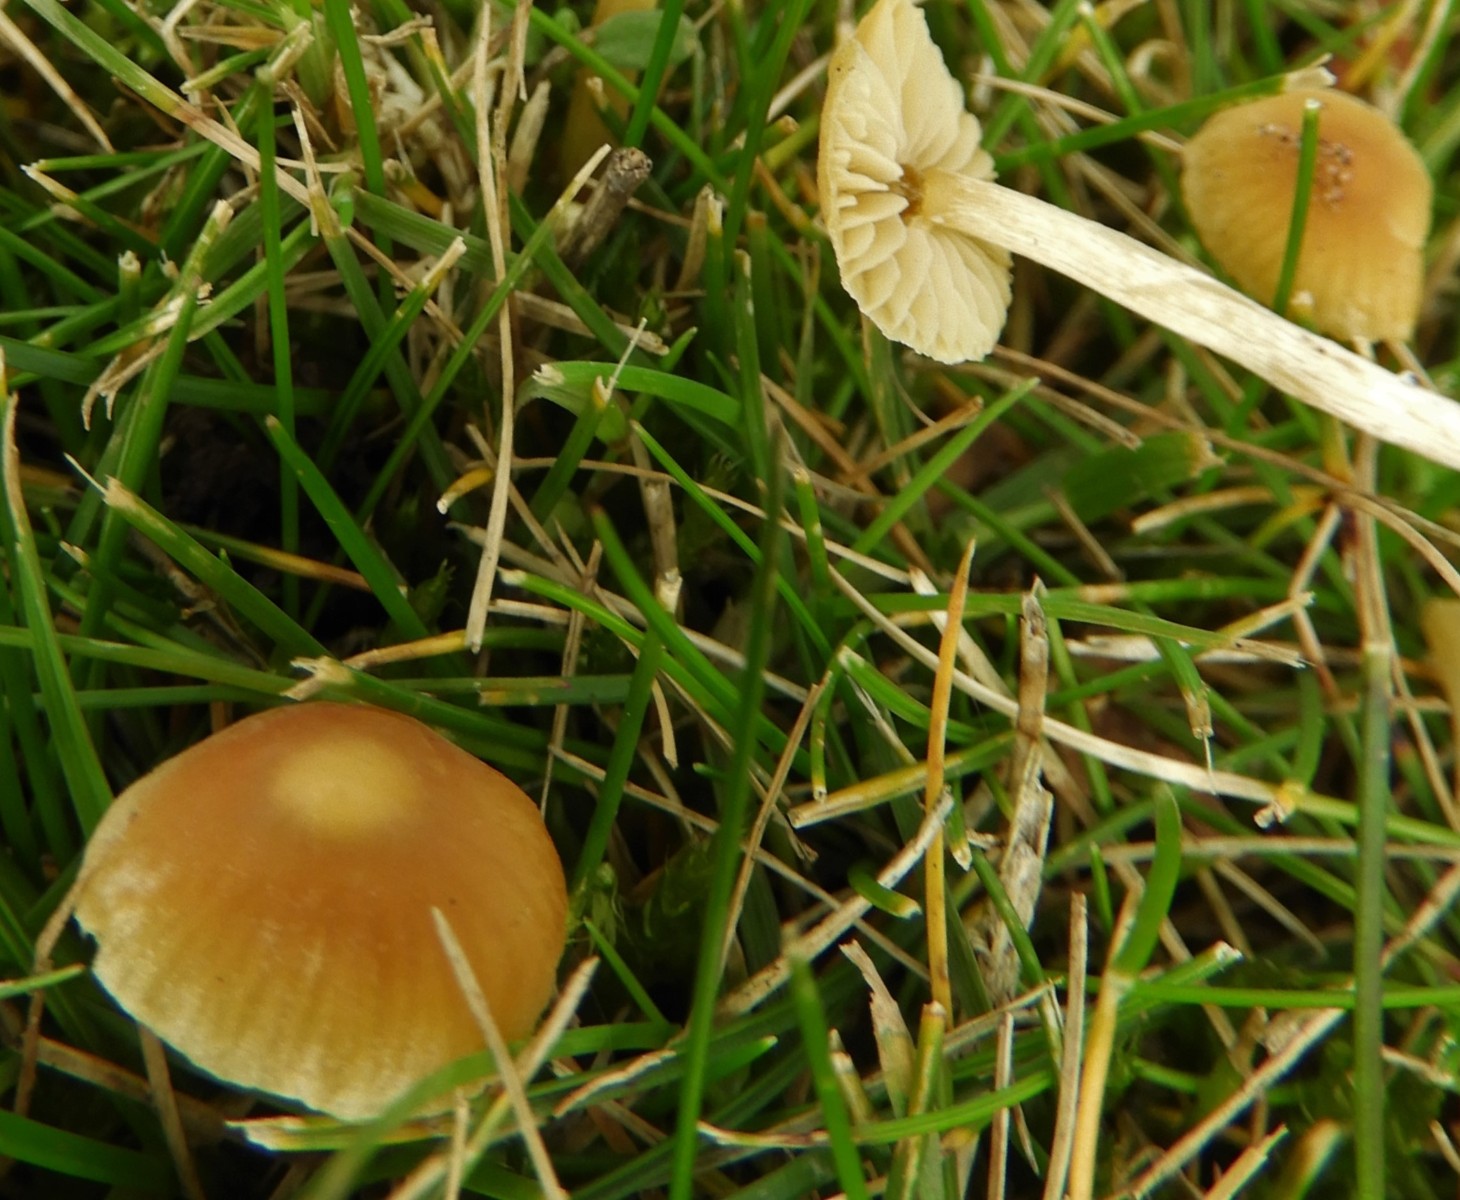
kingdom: Fungi
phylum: Basidiomycota
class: Agaricomycetes
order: Agaricales
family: Hymenogastraceae
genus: Galerina
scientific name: Galerina
